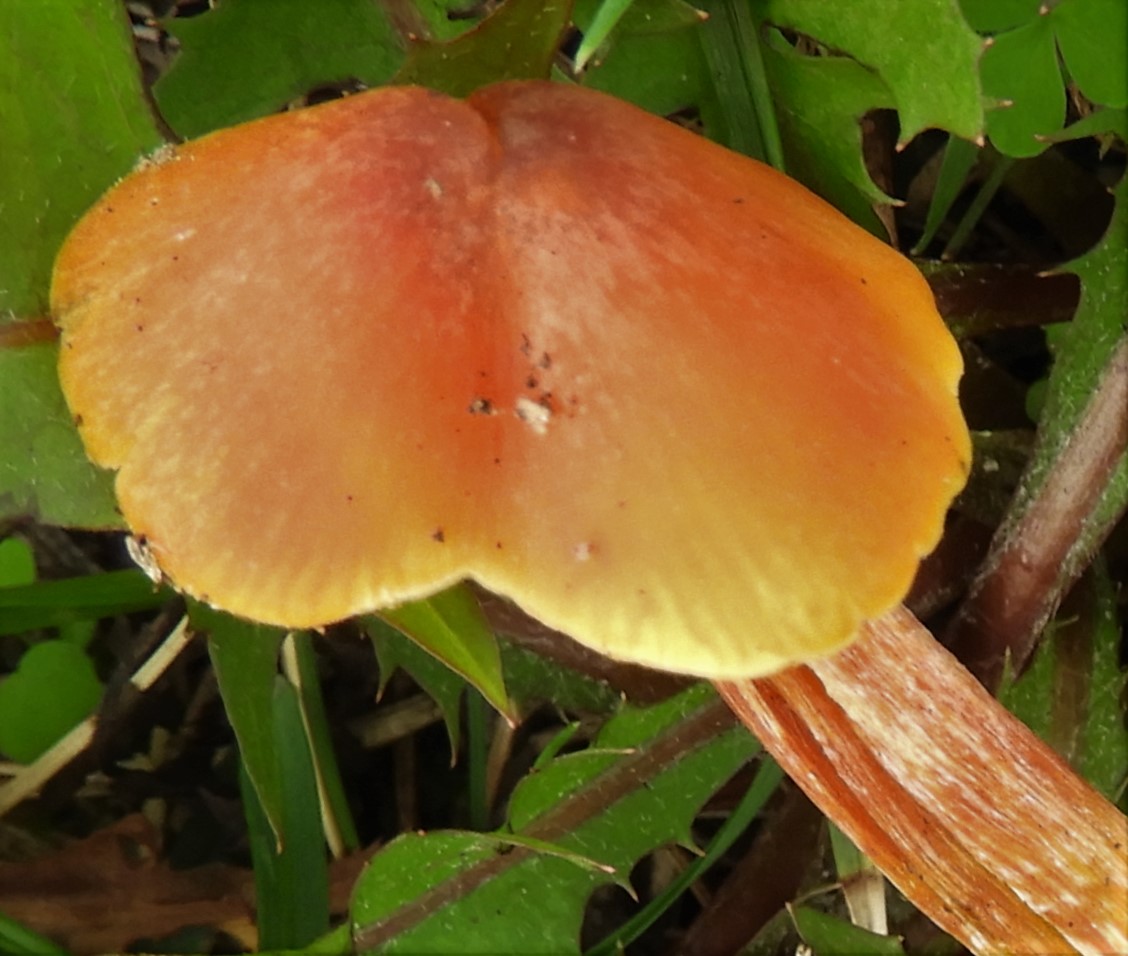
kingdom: Fungi
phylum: Basidiomycota
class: Agaricomycetes
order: Agaricales
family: Hygrophoraceae
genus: Hygrocybe
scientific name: Hygrocybe
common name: vokshat
